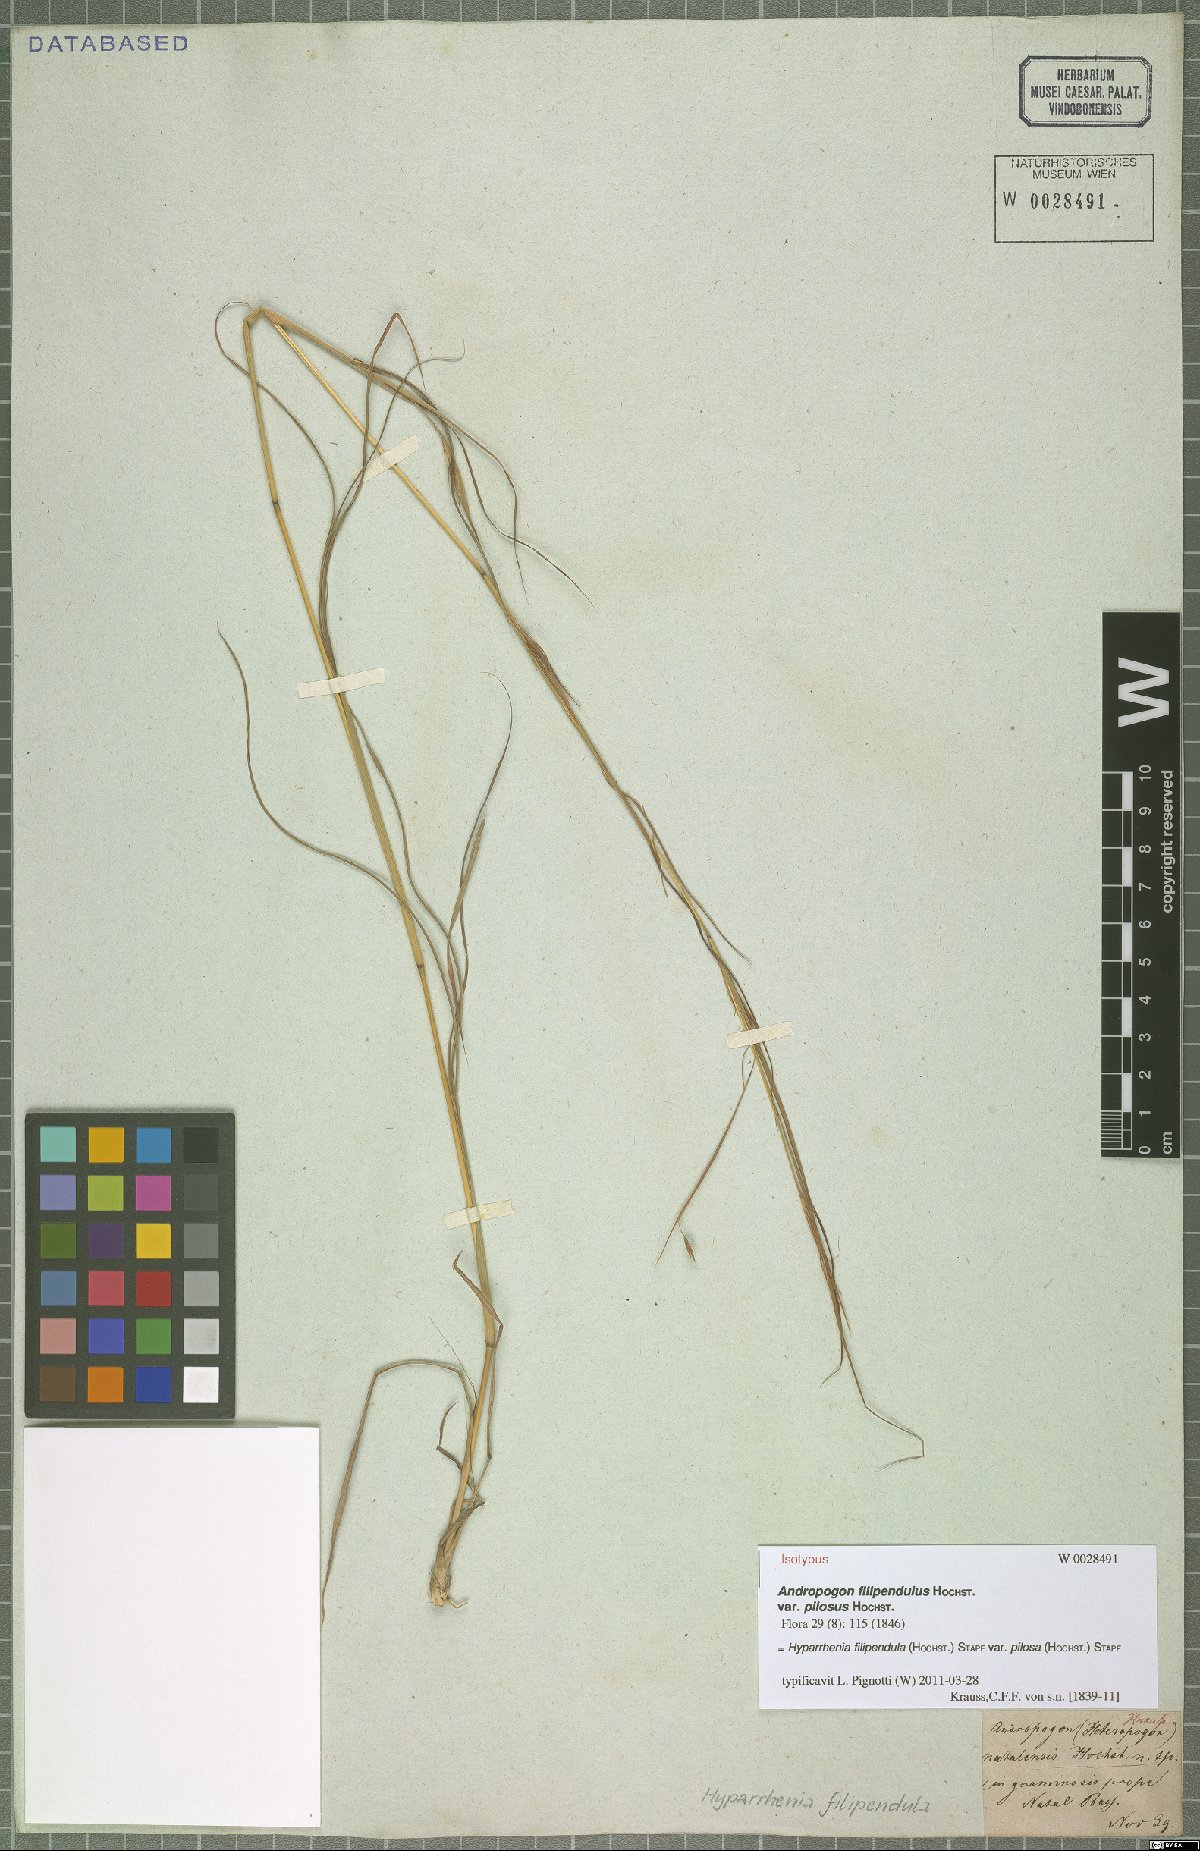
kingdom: Plantae
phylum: Tracheophyta
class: Liliopsida
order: Poales
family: Poaceae
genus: Hyparrhenia
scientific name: Hyparrhenia filipendula
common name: Tambookie grass
